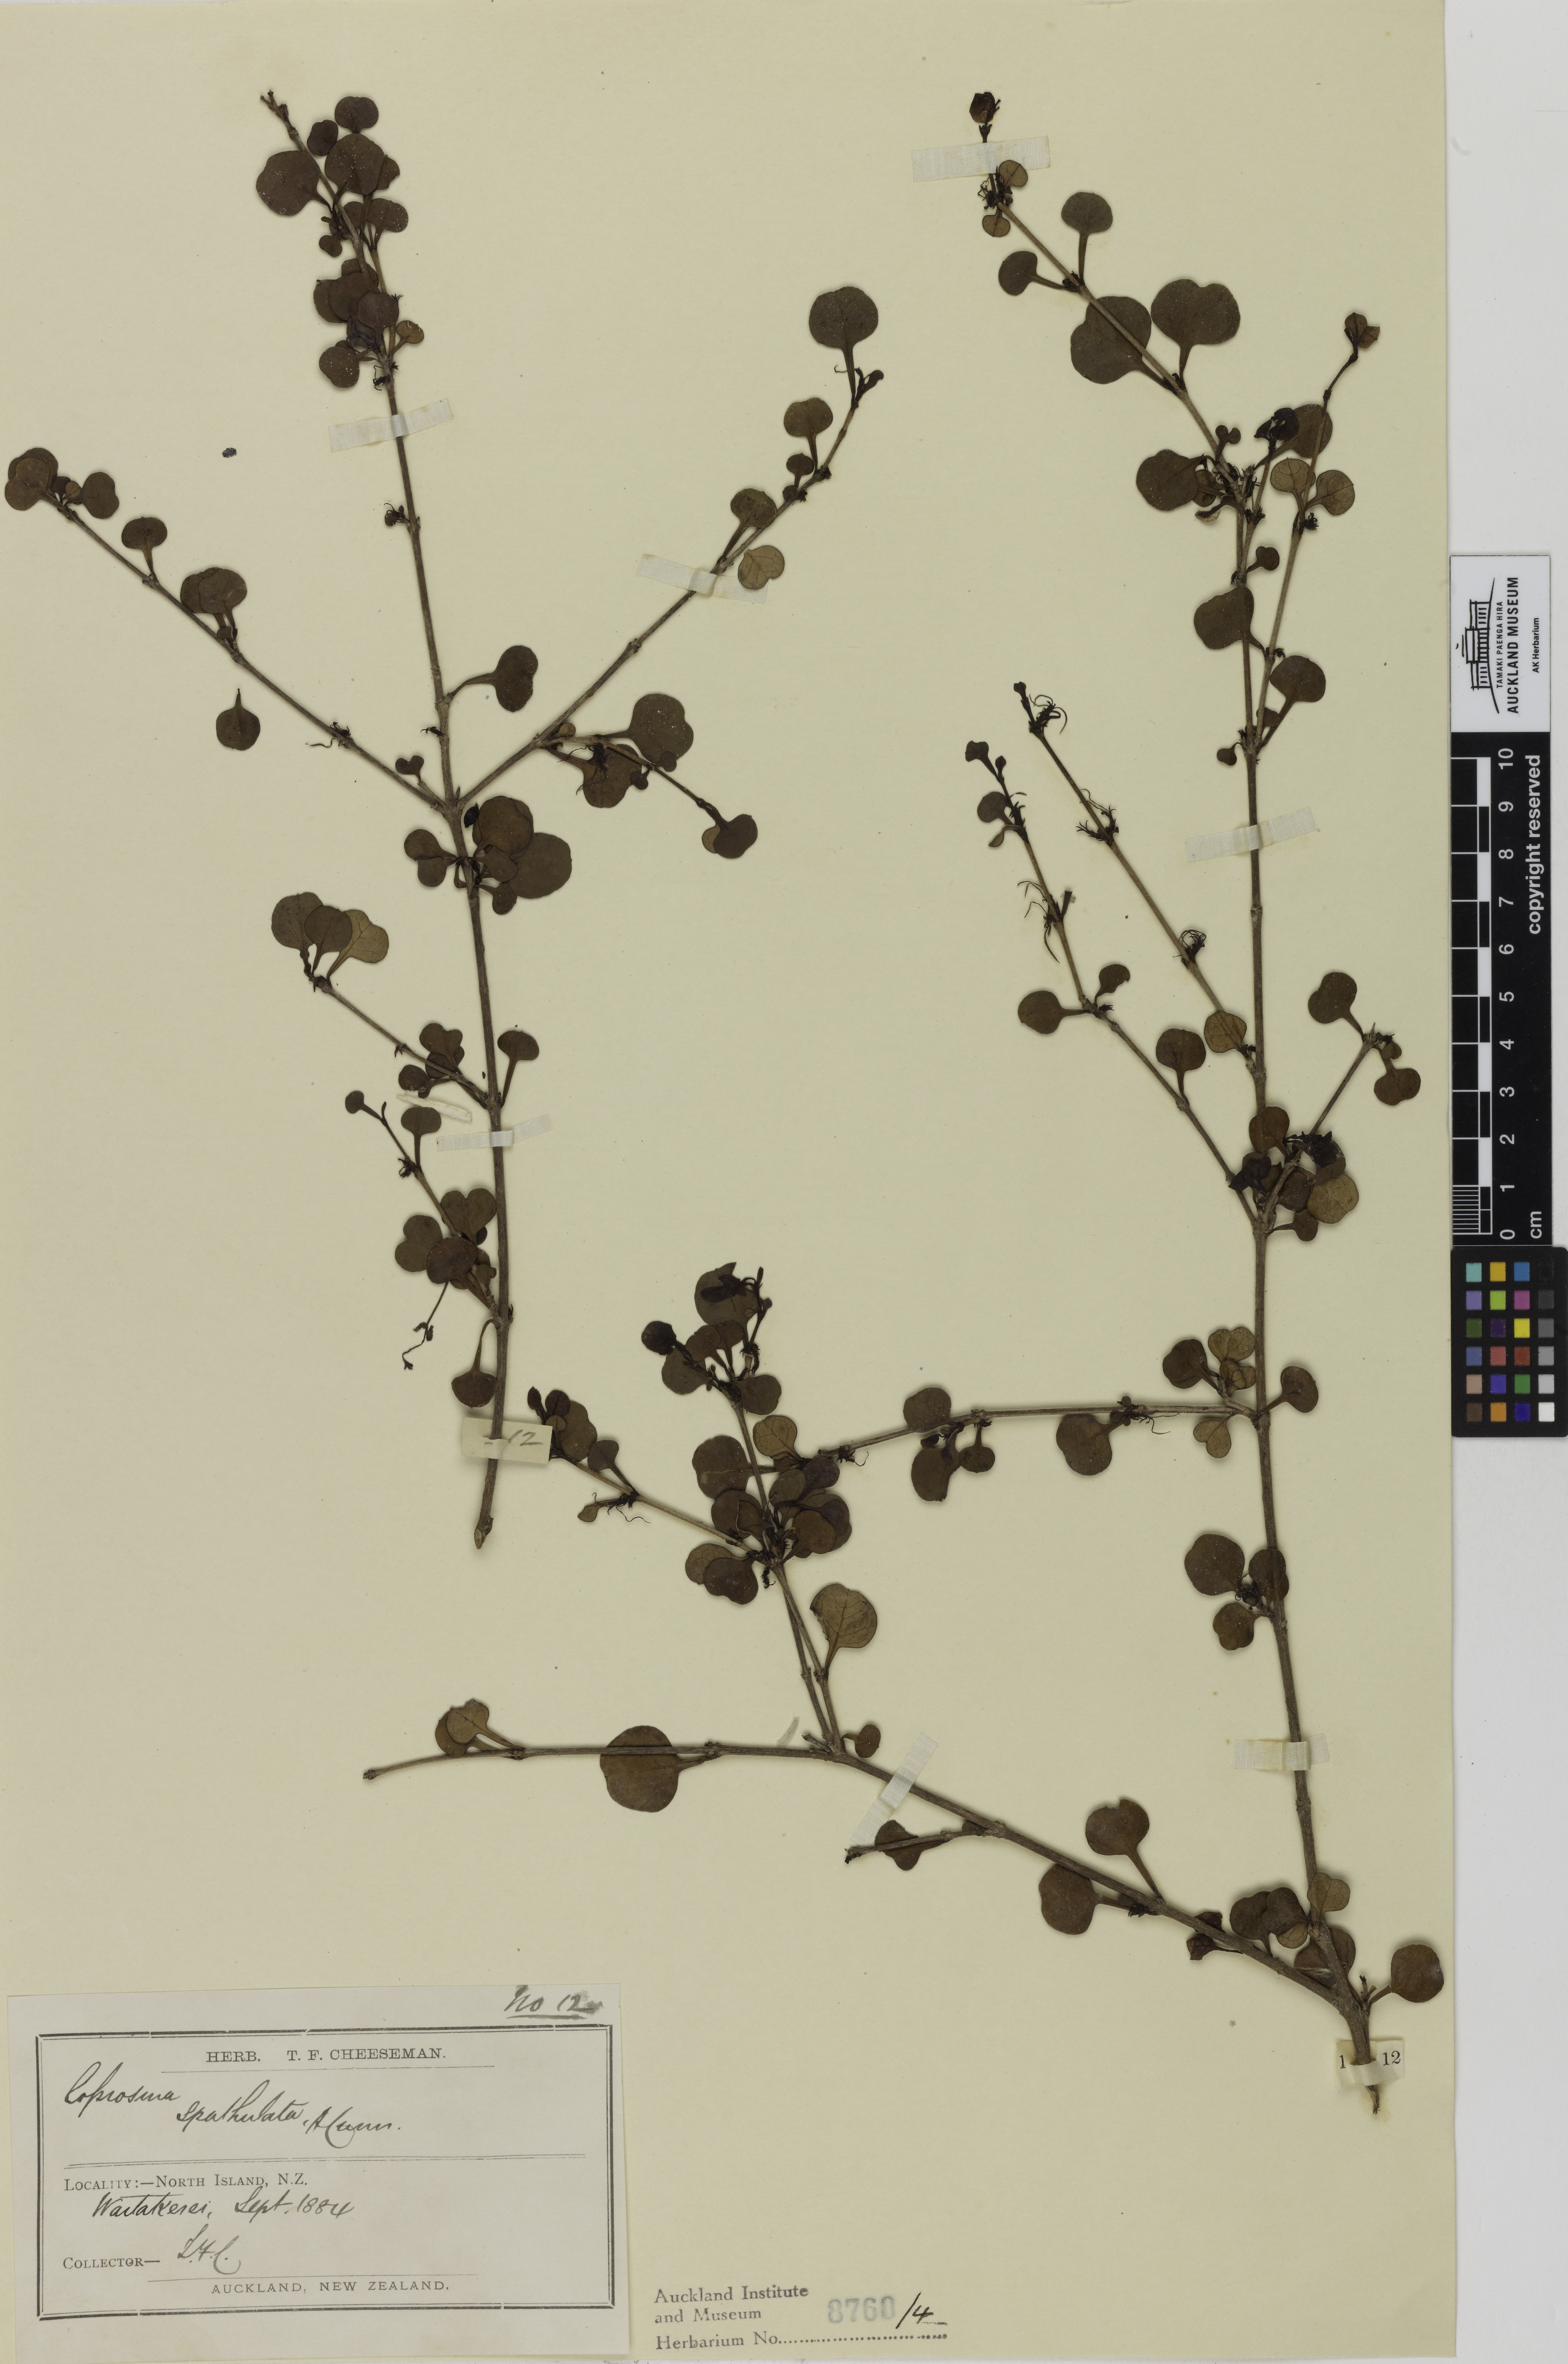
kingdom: Plantae
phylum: Tracheophyta
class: Magnoliopsida
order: Gentianales
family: Rubiaceae
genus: Coprosma
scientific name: Coprosma spathulata
